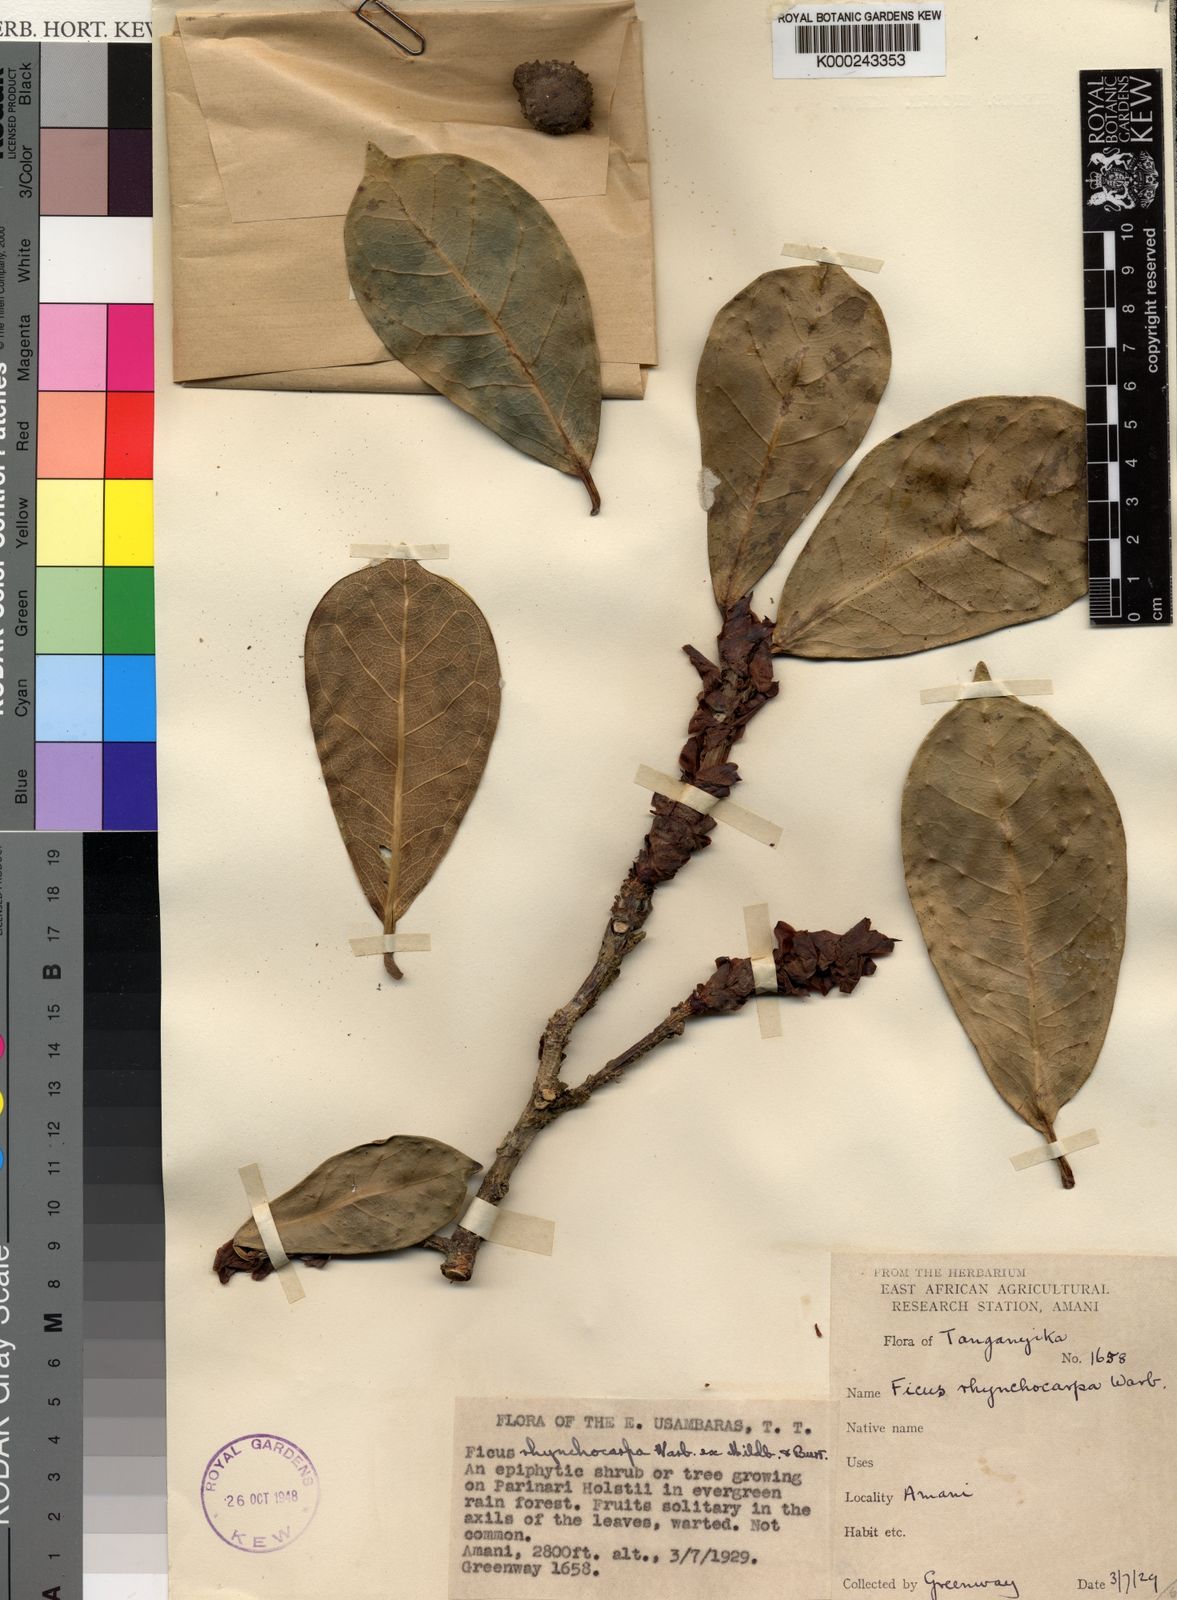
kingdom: Plantae
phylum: Tracheophyta
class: Magnoliopsida
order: Rosales
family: Moraceae
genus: Ficus
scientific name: Ficus cyathistipula
